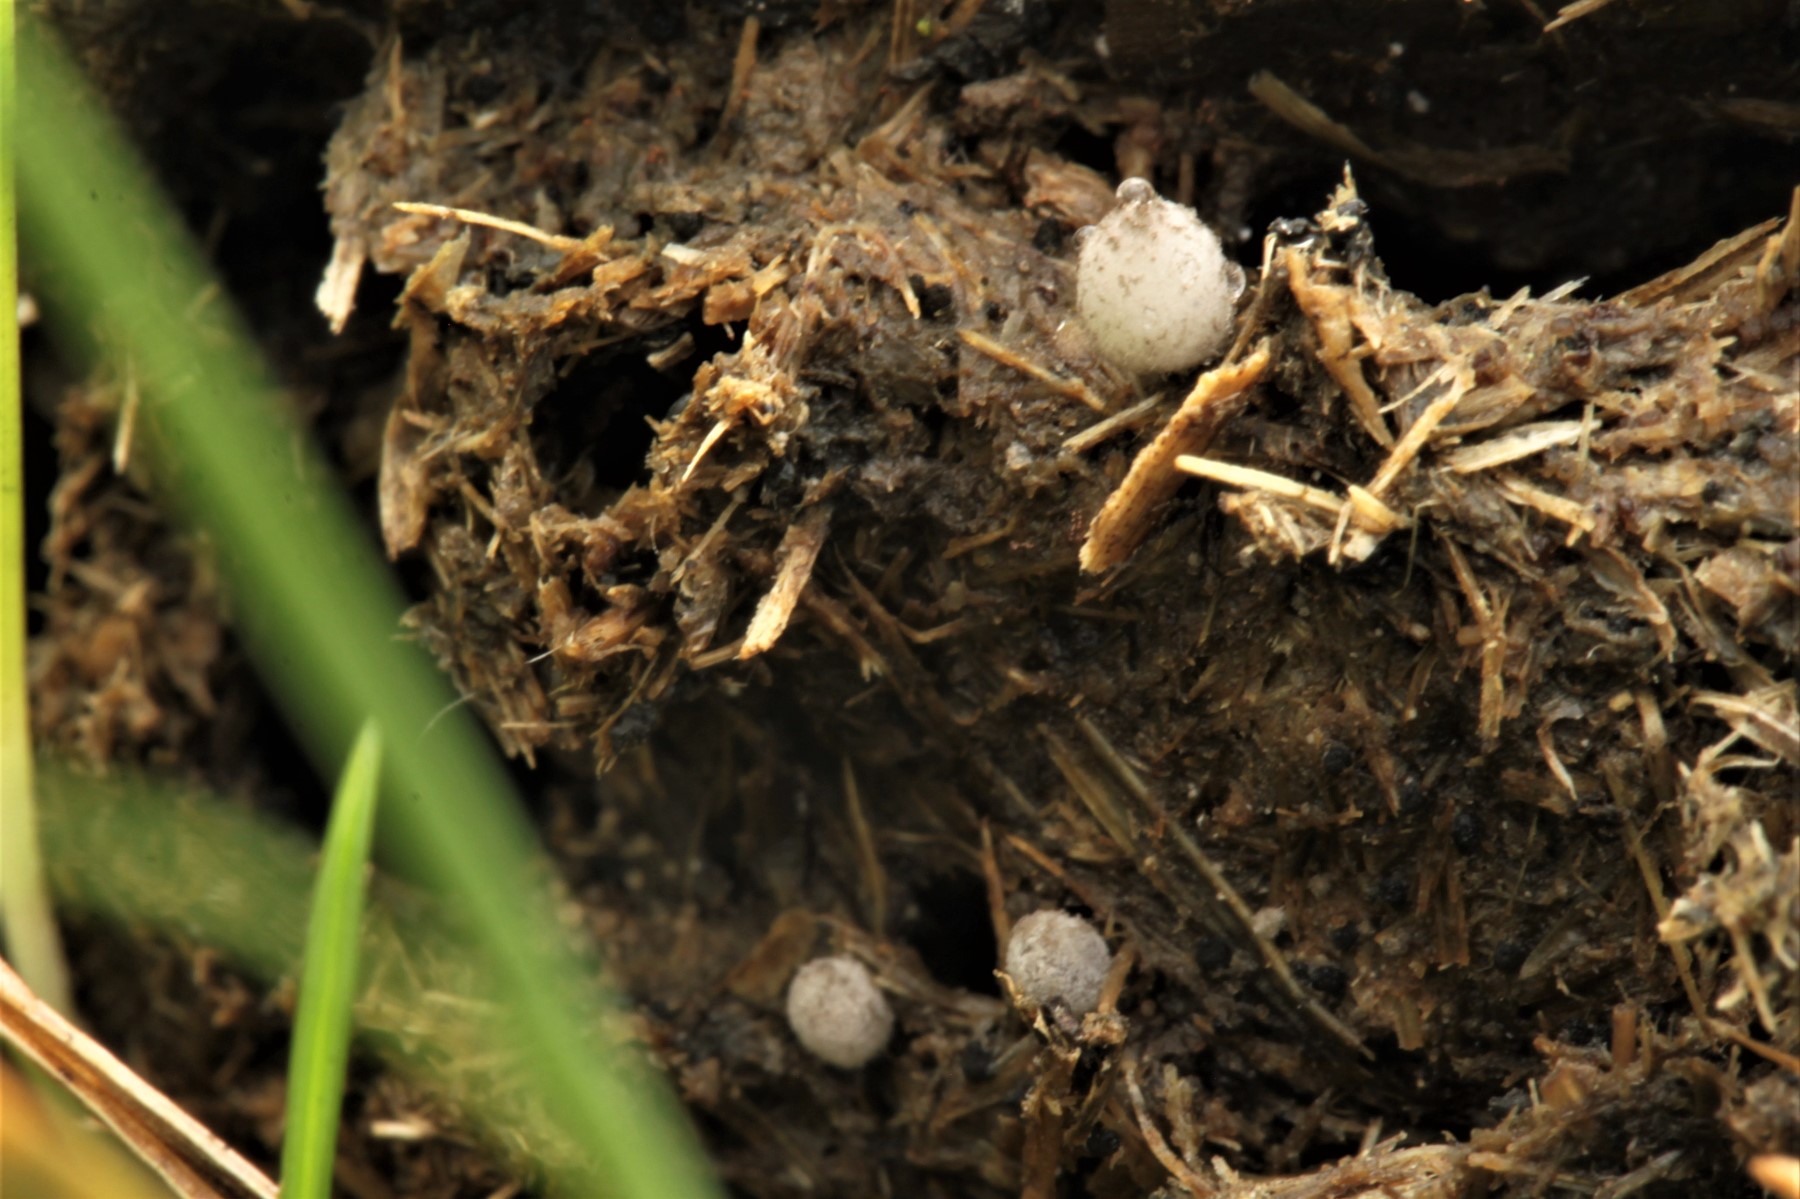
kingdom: Fungi
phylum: Basidiomycota
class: Agaricomycetes
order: Agaricales
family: Psathyrellaceae
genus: Coprinopsis
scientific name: Coprinopsis poliomalla
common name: gråfnugget blækhat
